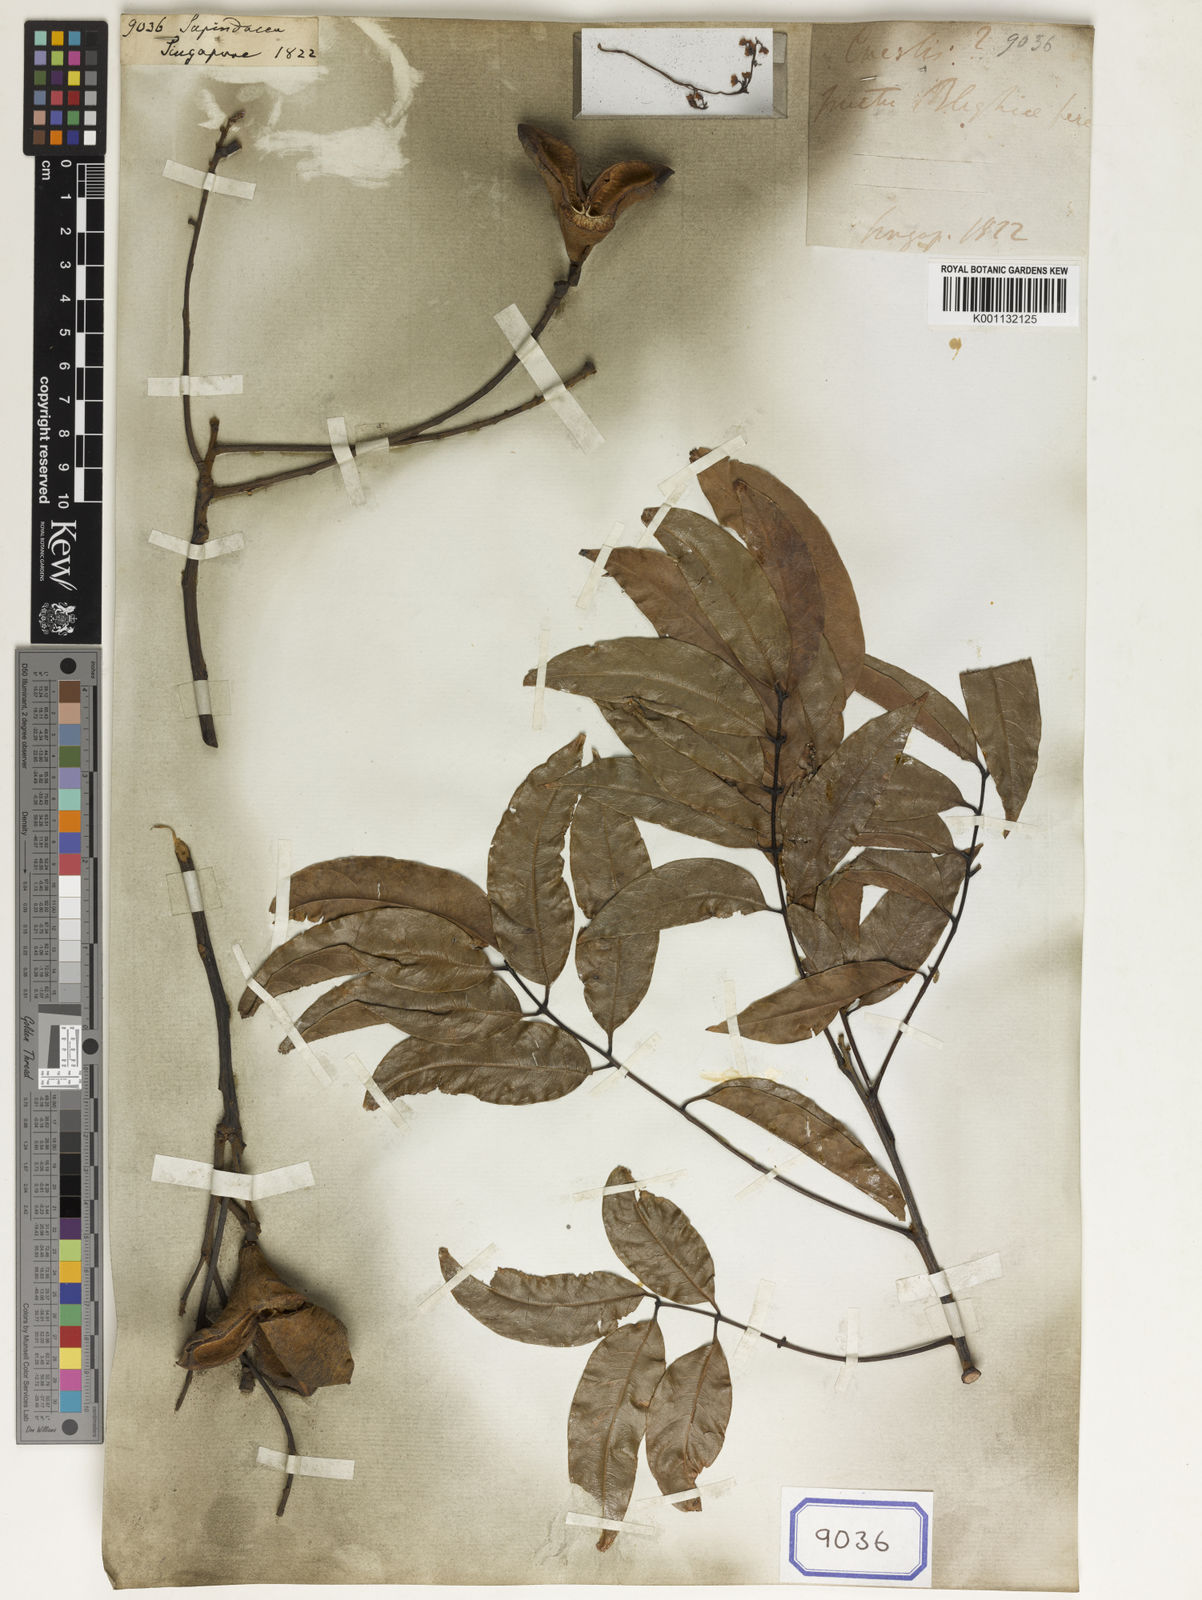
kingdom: Plantae
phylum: Tracheophyta
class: Magnoliopsida
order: Sapindales
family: Sapindaceae
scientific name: Sapindaceae
